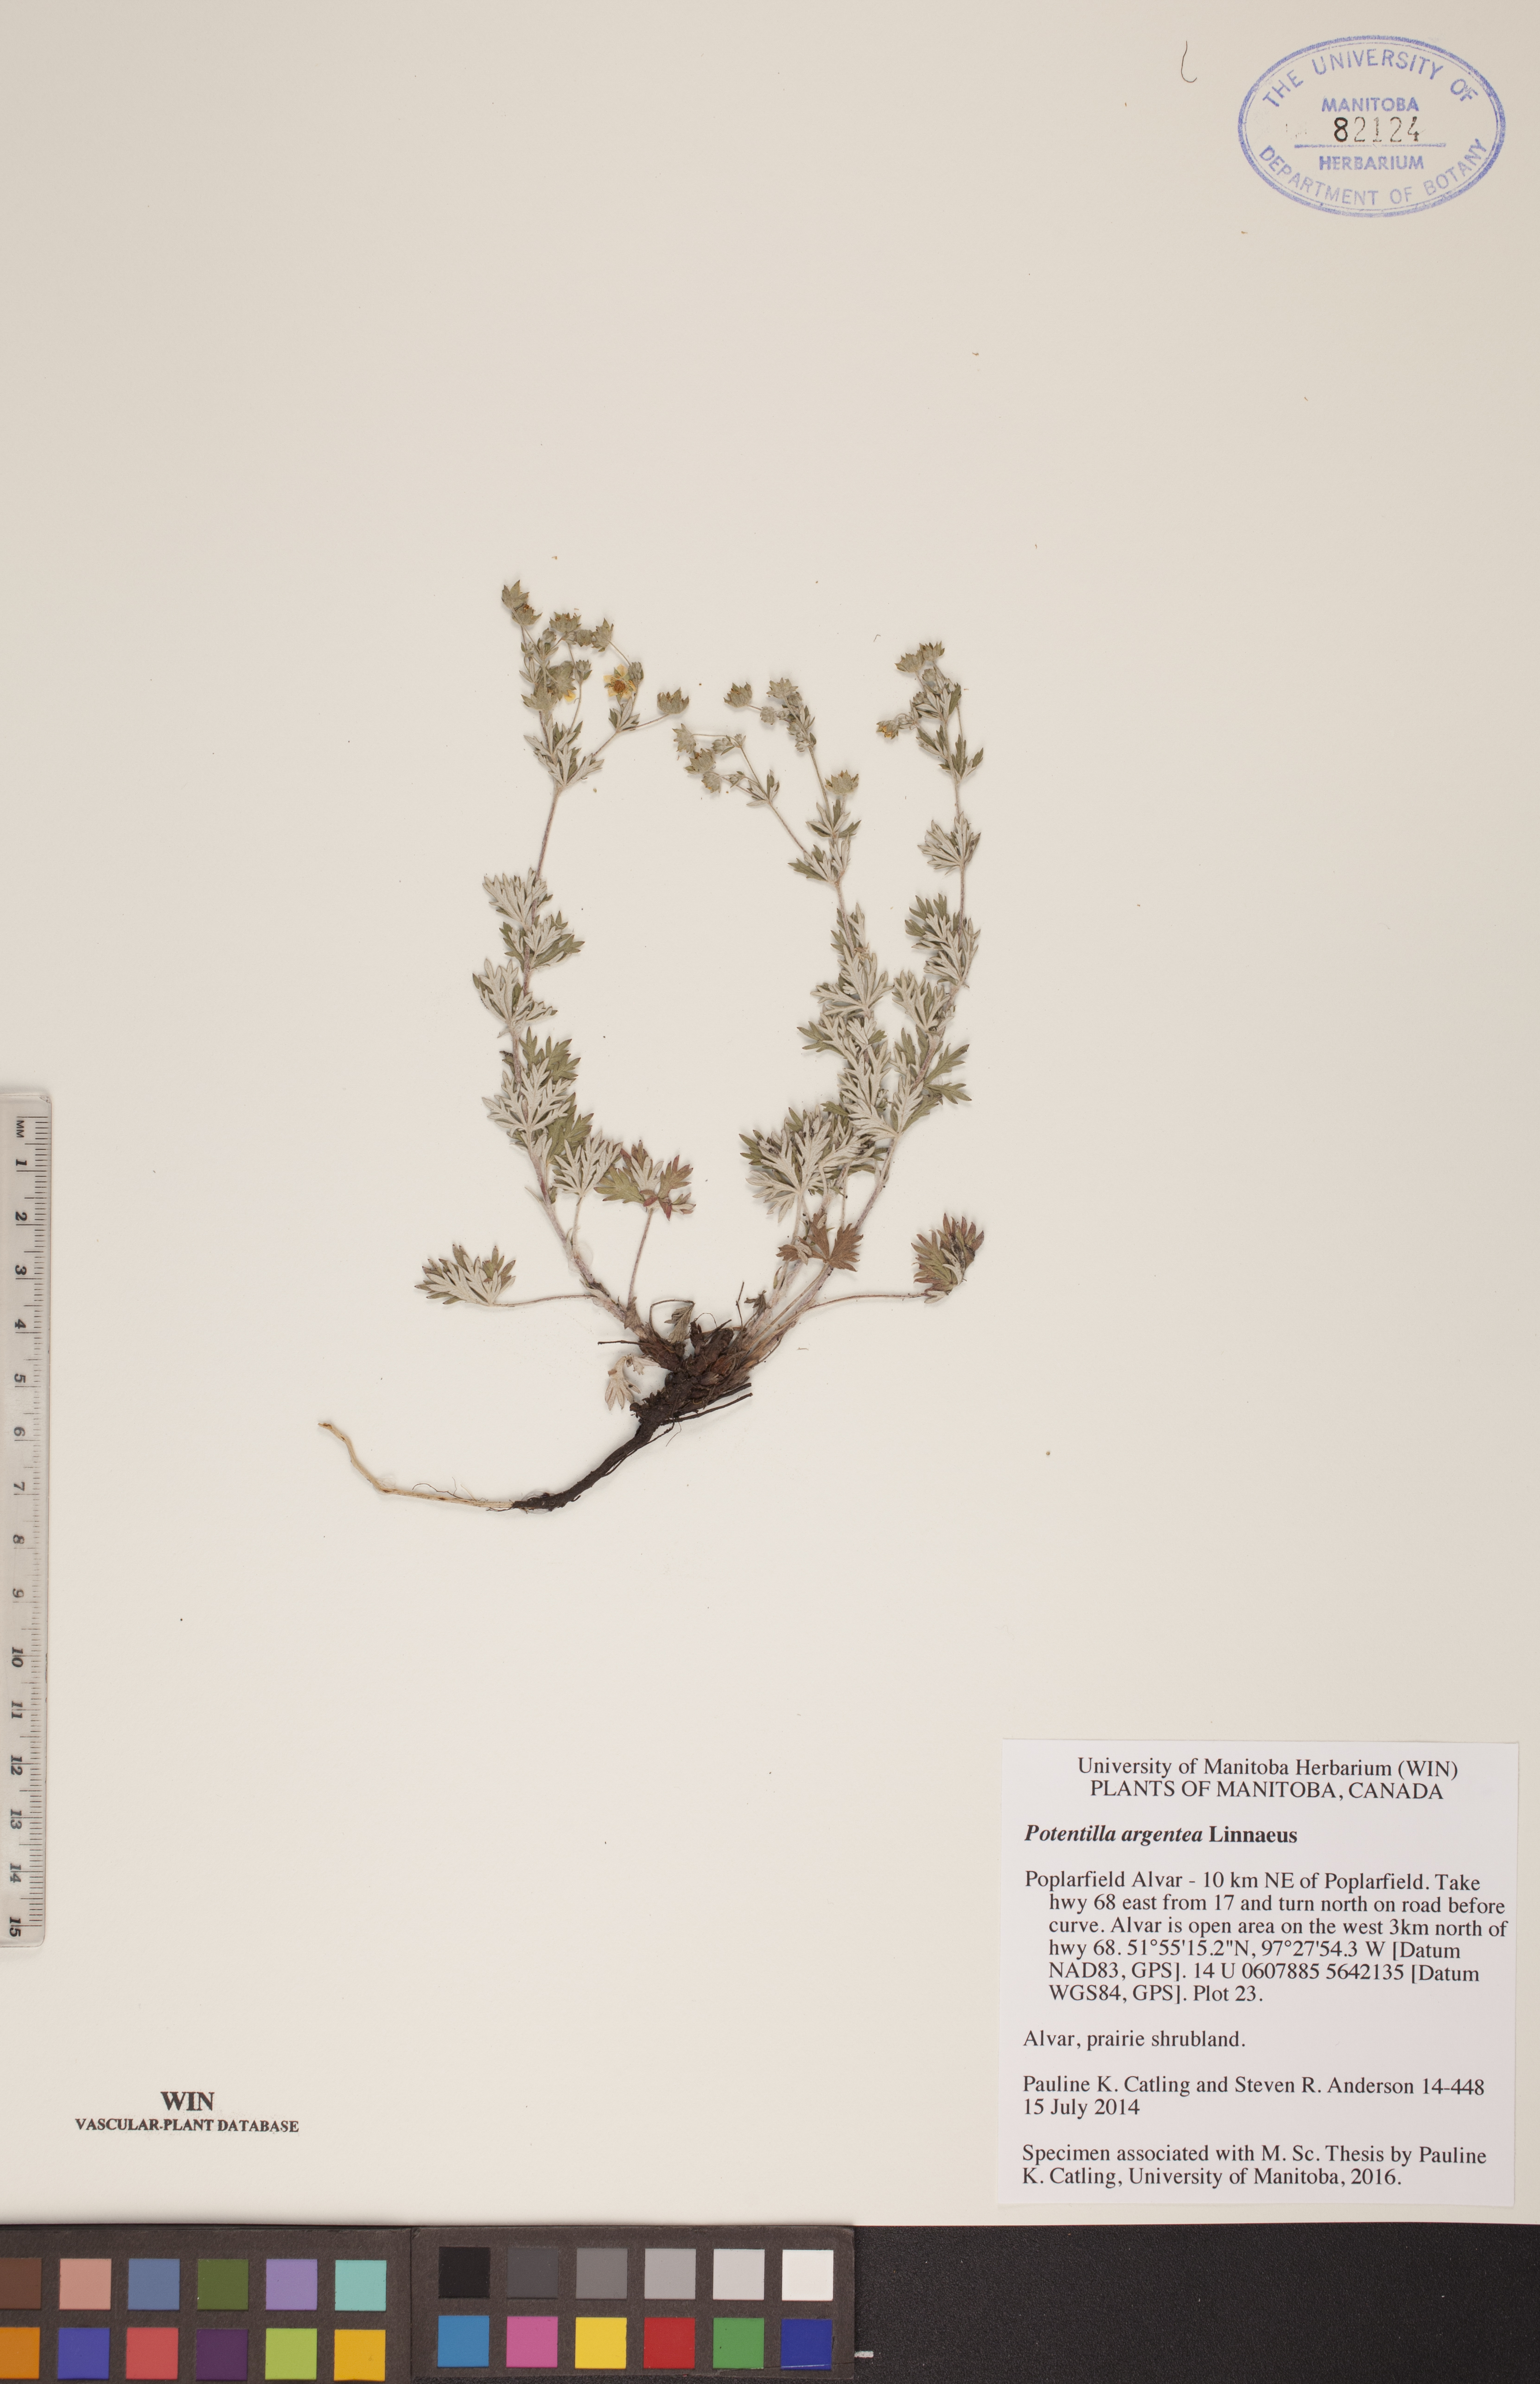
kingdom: Plantae
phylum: Tracheophyta
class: Magnoliopsida
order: Rosales
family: Rosaceae
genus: Potentilla
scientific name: Potentilla argentea
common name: Hoary cinquefoil
